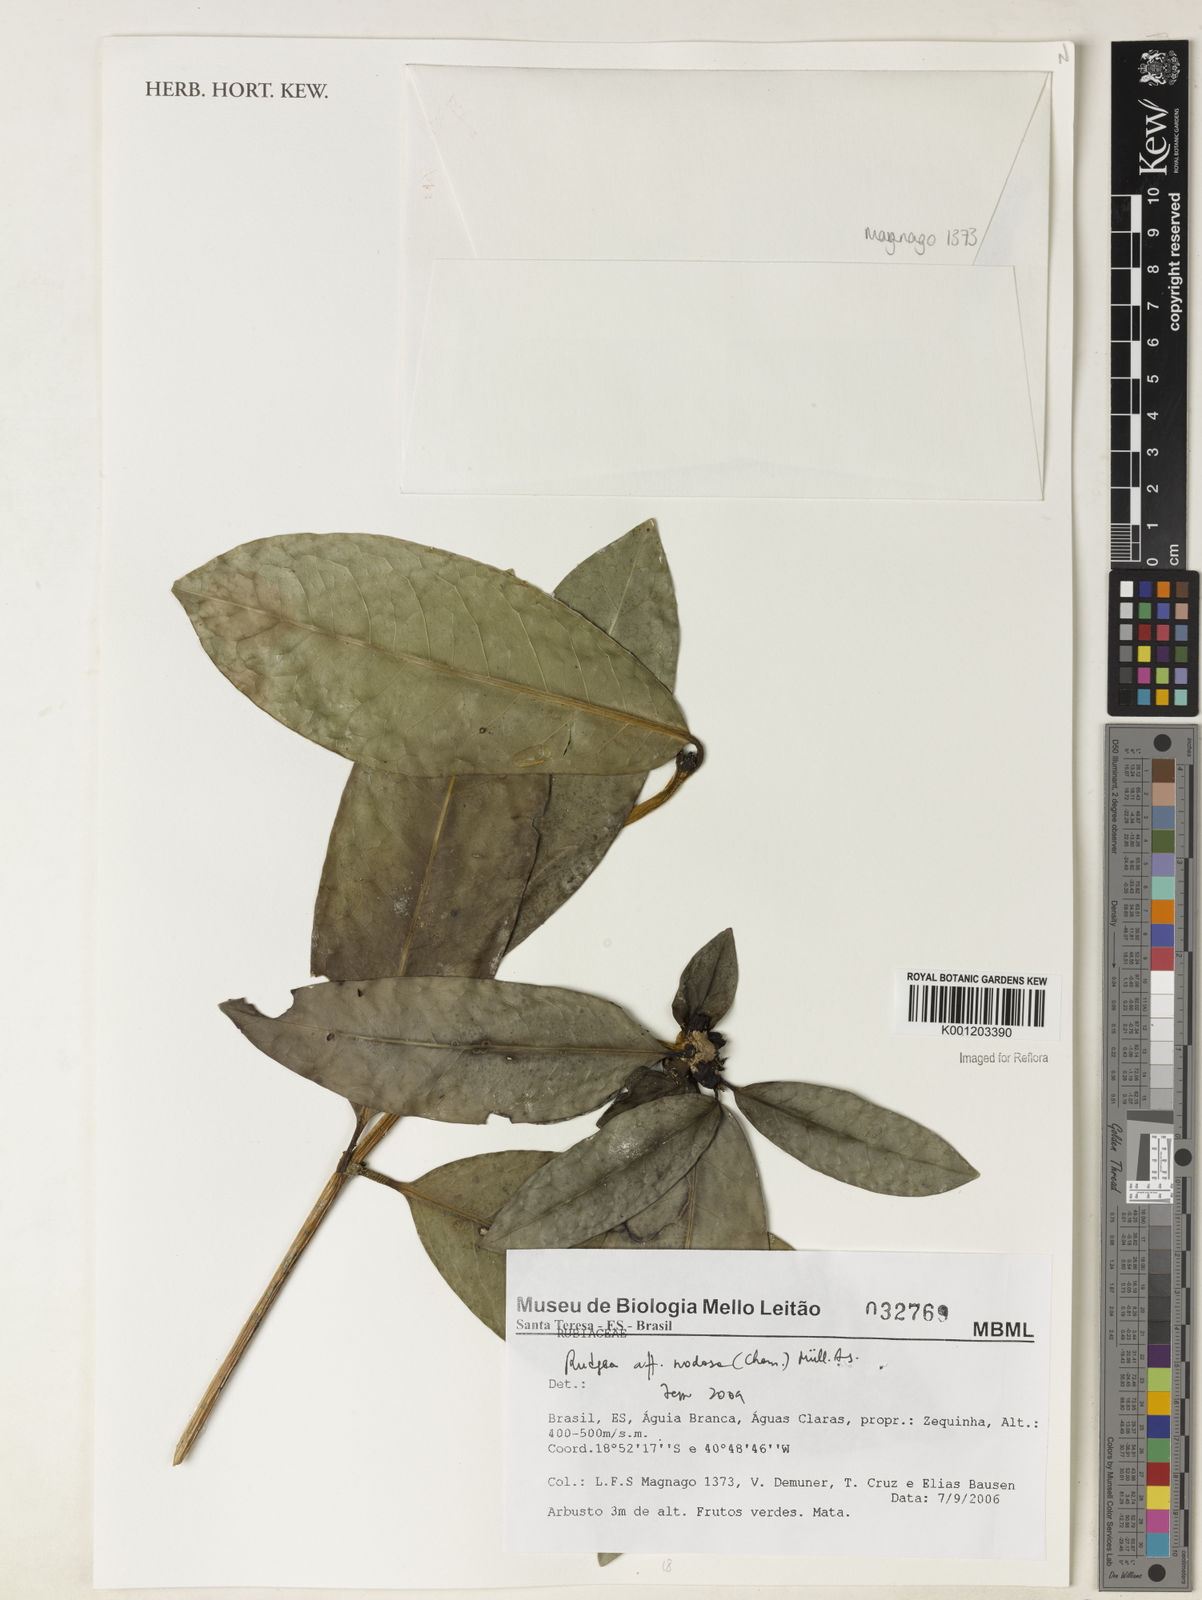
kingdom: Plantae
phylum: Tracheophyta
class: Magnoliopsida
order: Gentianales
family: Rubiaceae
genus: Rudgea
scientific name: Rudgea nodosa
